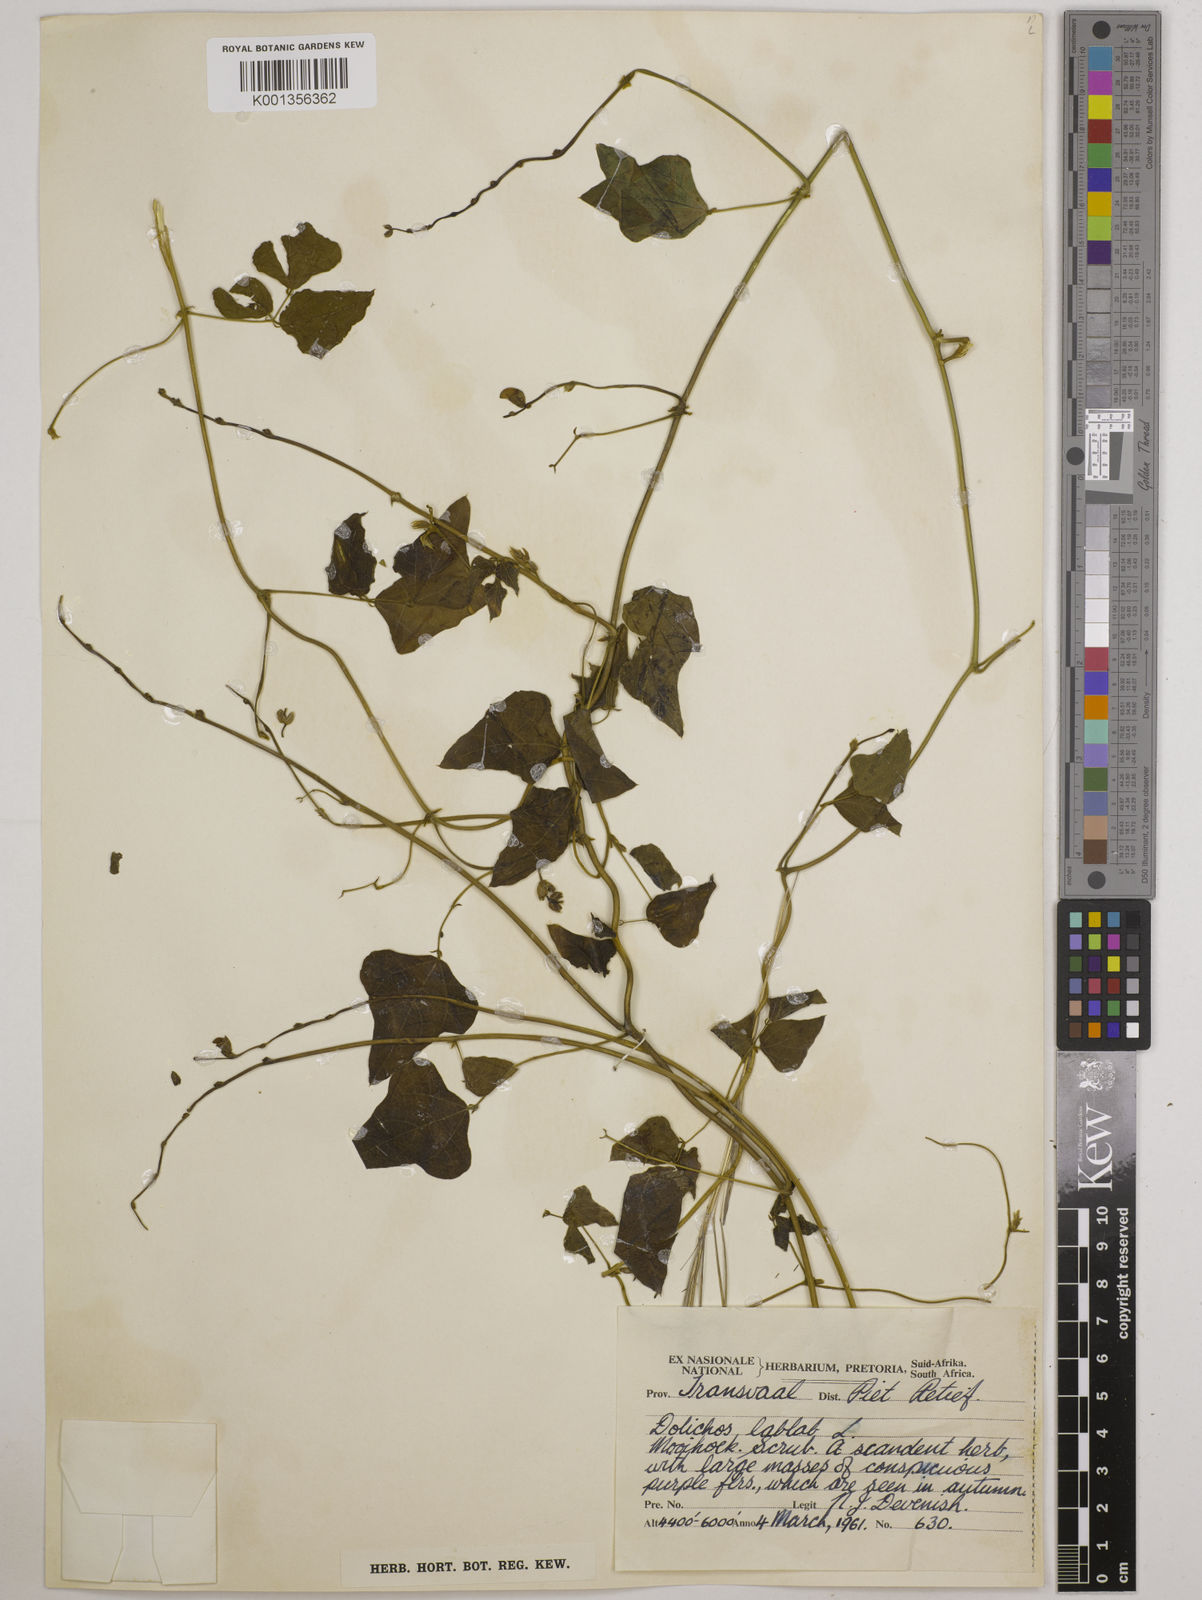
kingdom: Plantae
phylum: Tracheophyta
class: Magnoliopsida
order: Fabales
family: Fabaceae
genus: Lablab
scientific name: Lablab purpureus
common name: Lablab-bean
